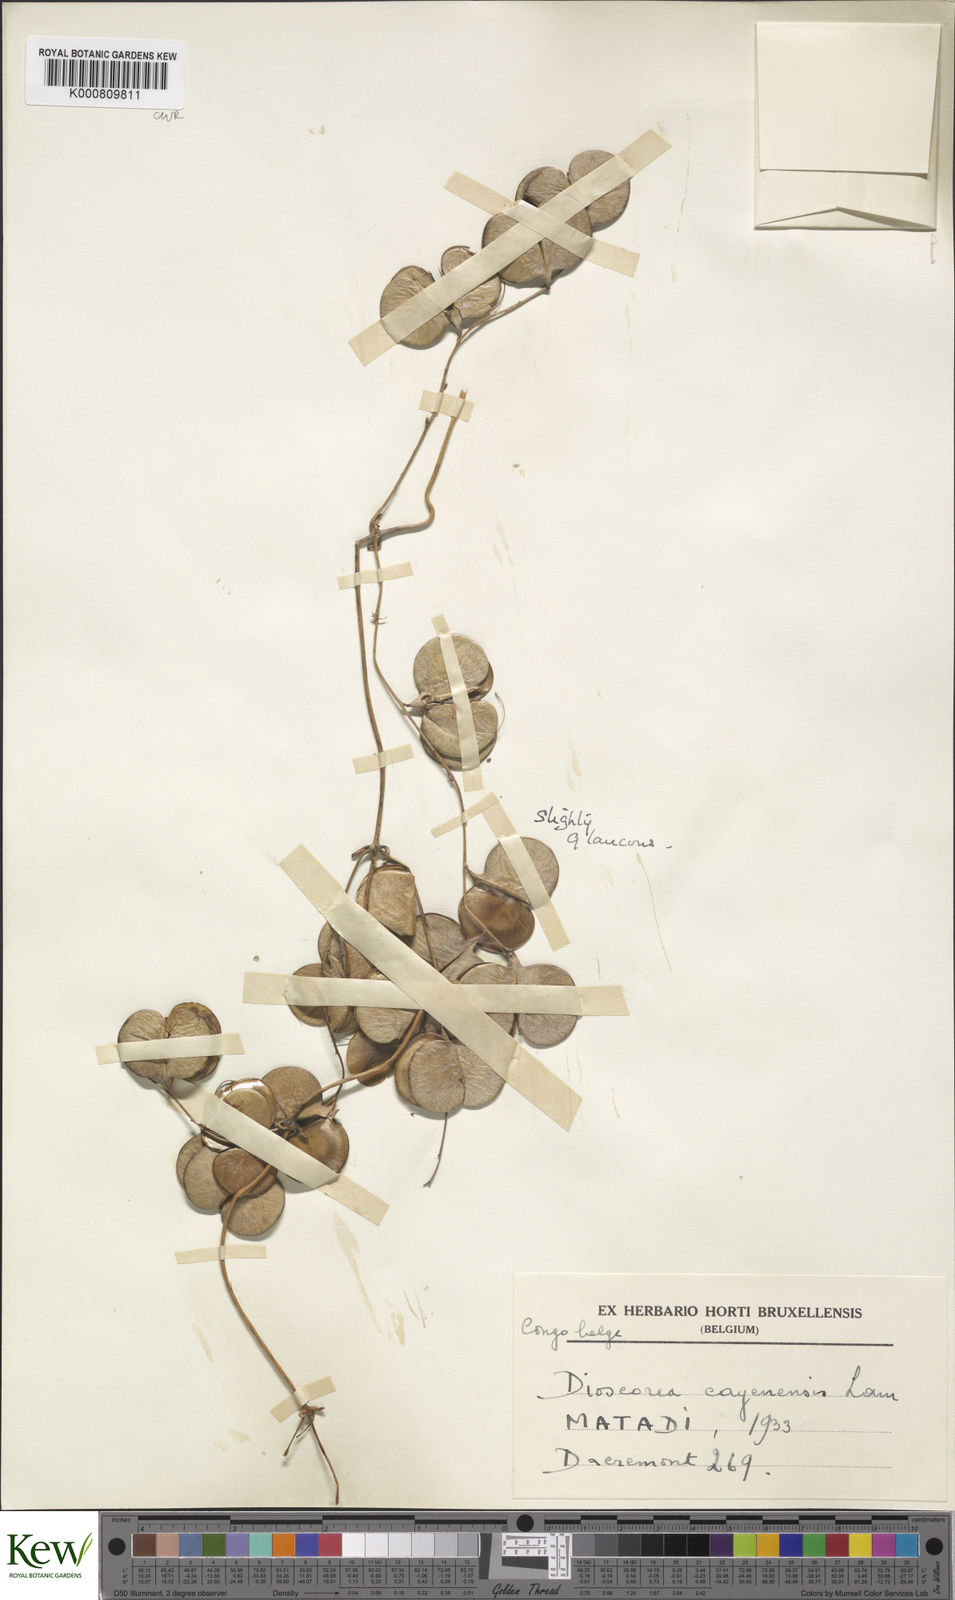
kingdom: Plantae
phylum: Tracheophyta
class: Liliopsida
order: Dioscoreales
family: Dioscoreaceae
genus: Dioscorea
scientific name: Dioscorea cayenensis
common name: Attoto yam
